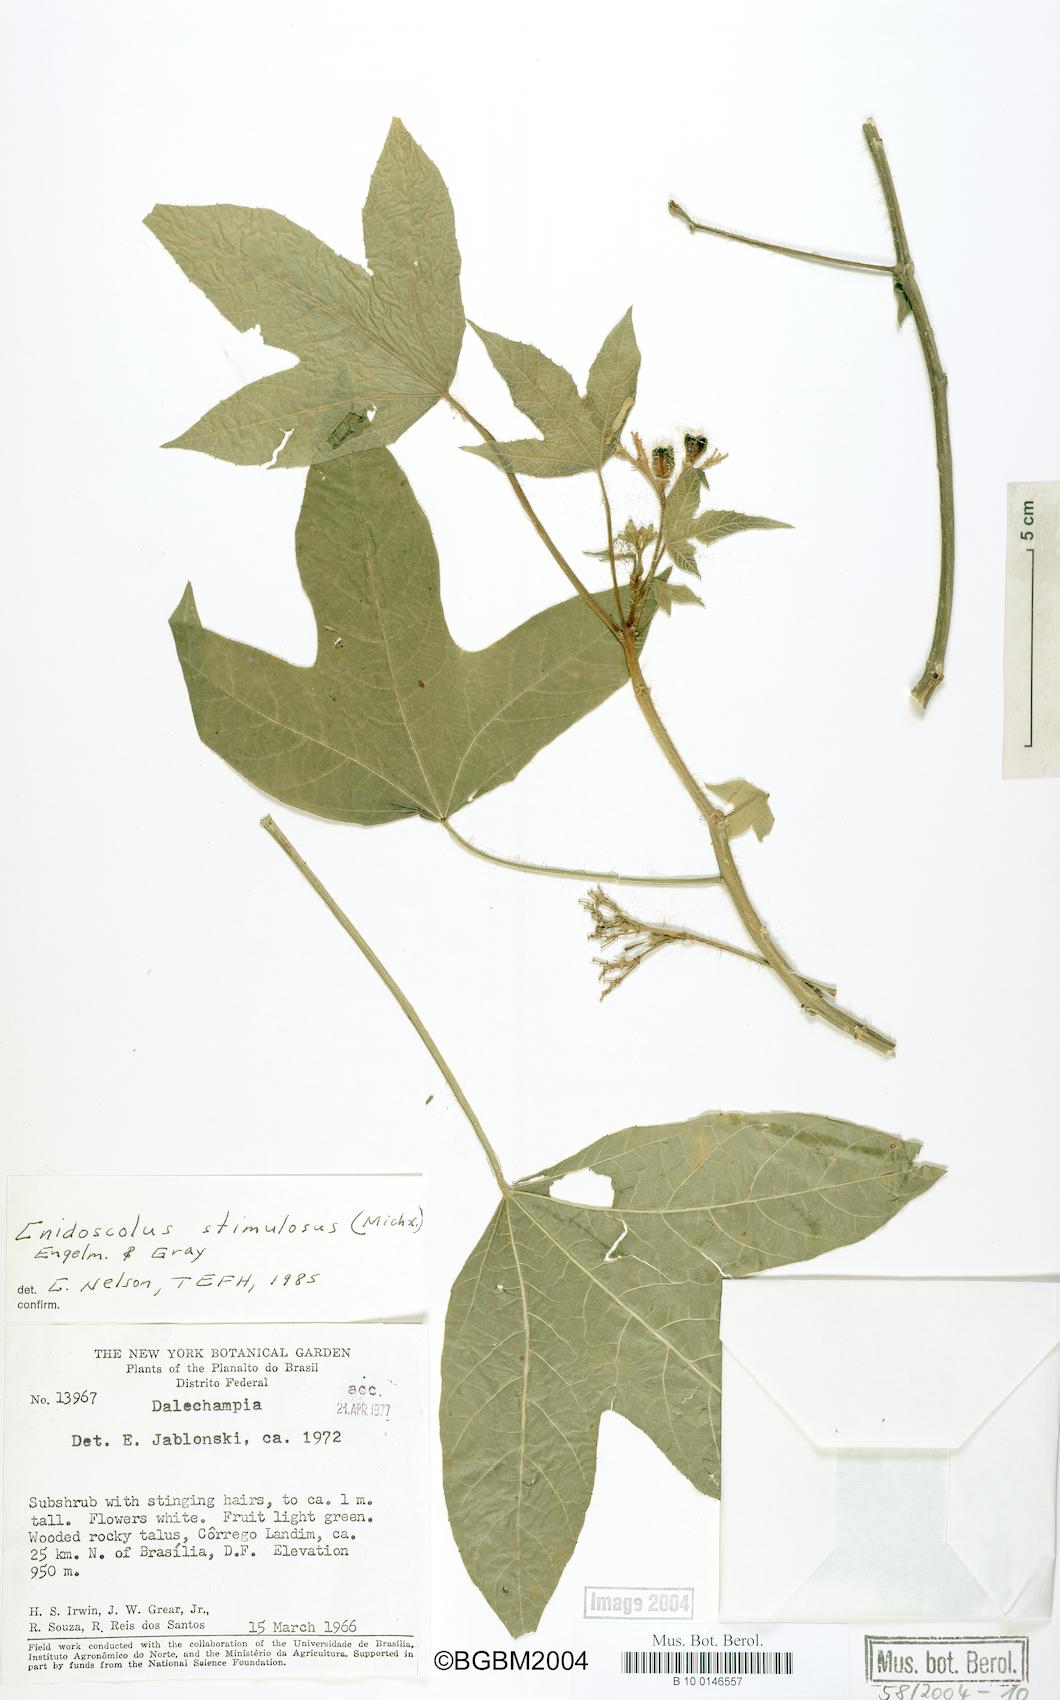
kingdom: Plantae
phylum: Tracheophyta
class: Magnoliopsida
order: Malpighiales
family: Euphorbiaceae
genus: Cnidoscolus
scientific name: Cnidoscolus stimulosus
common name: Bull-nettle
